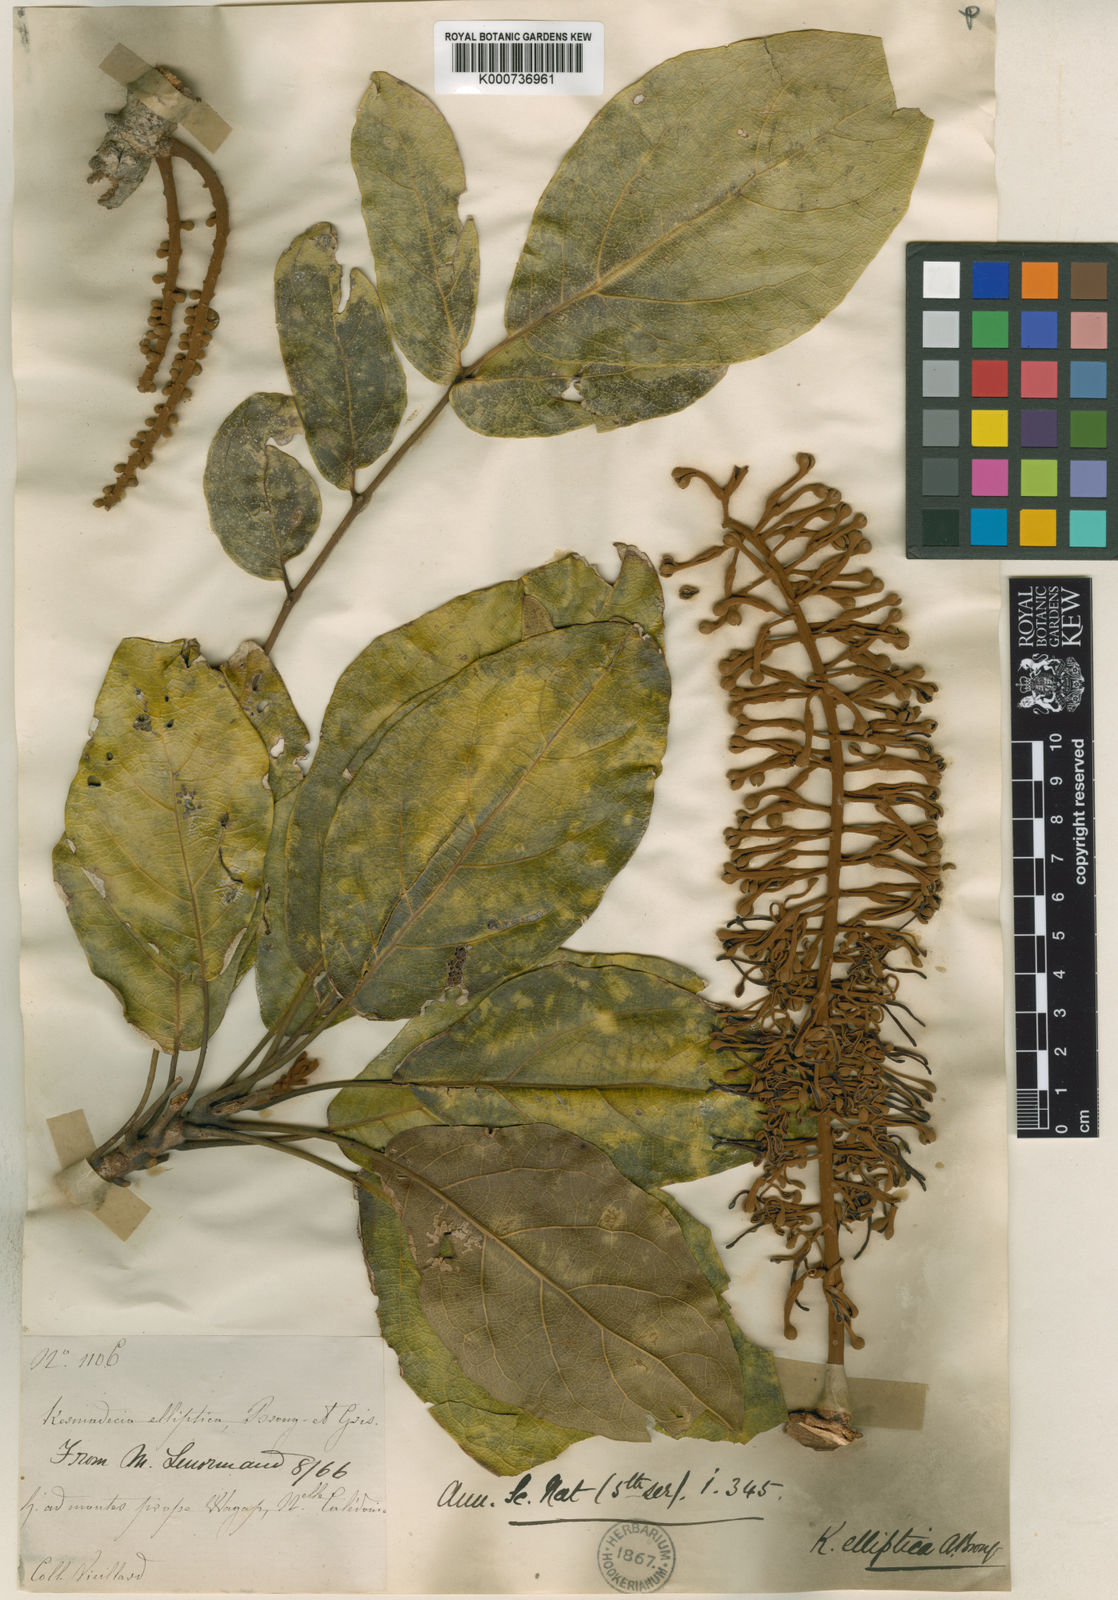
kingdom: Plantae
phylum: Tracheophyta
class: Magnoliopsida
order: Proteales
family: Proteaceae
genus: Kermadecia
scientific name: Kermadecia elliptica
